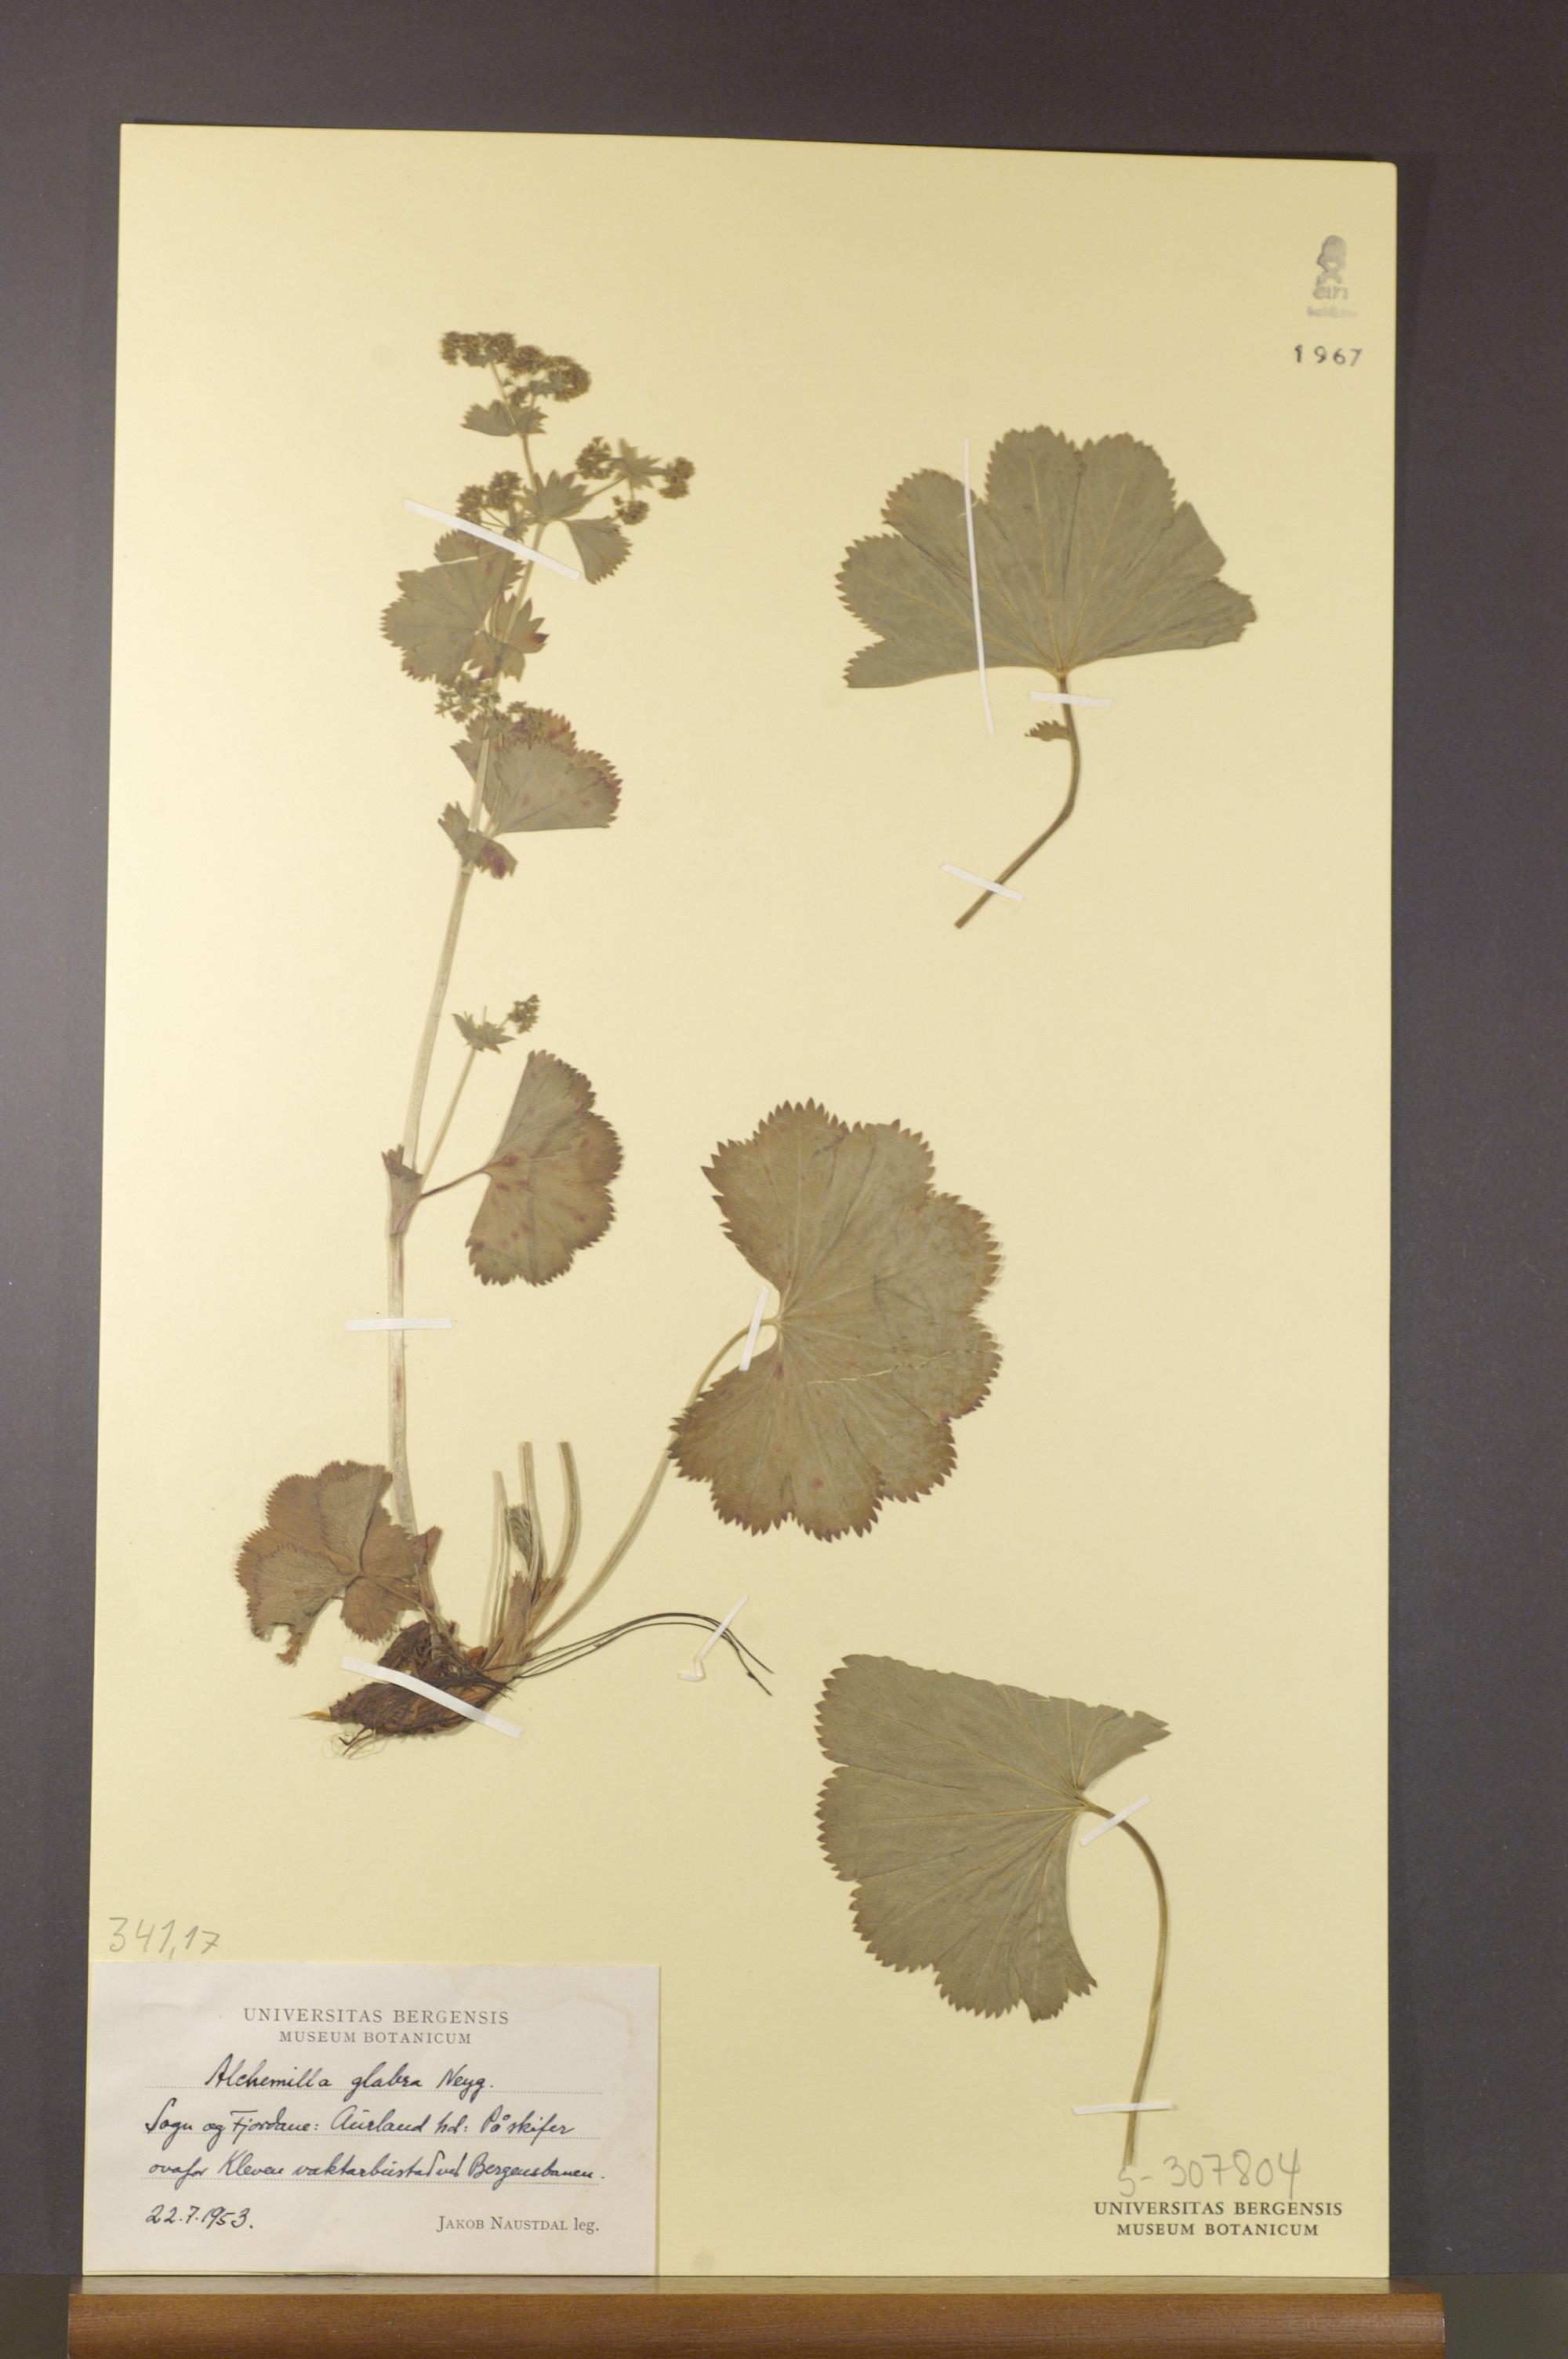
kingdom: Plantae
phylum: Tracheophyta
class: Magnoliopsida
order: Rosales
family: Rosaceae
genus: Alchemilla
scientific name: Alchemilla glabra
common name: Smooth lady's-mantle
